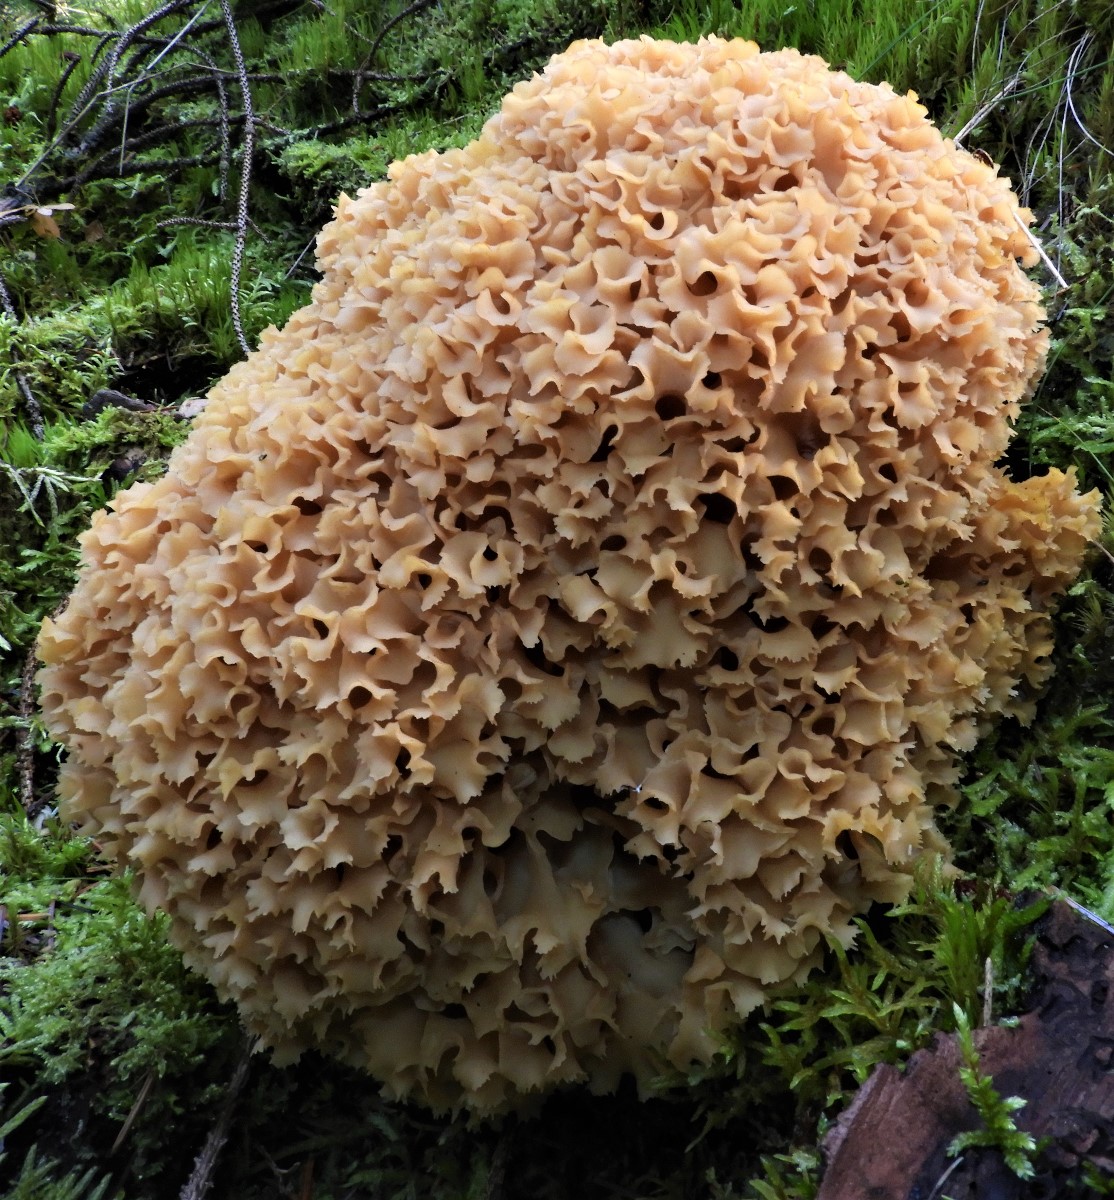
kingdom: Fungi
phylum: Basidiomycota
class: Agaricomycetes
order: Polyporales
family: Sparassidaceae
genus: Sparassis
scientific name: Sparassis crispa
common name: kruset blomkålssvamp
